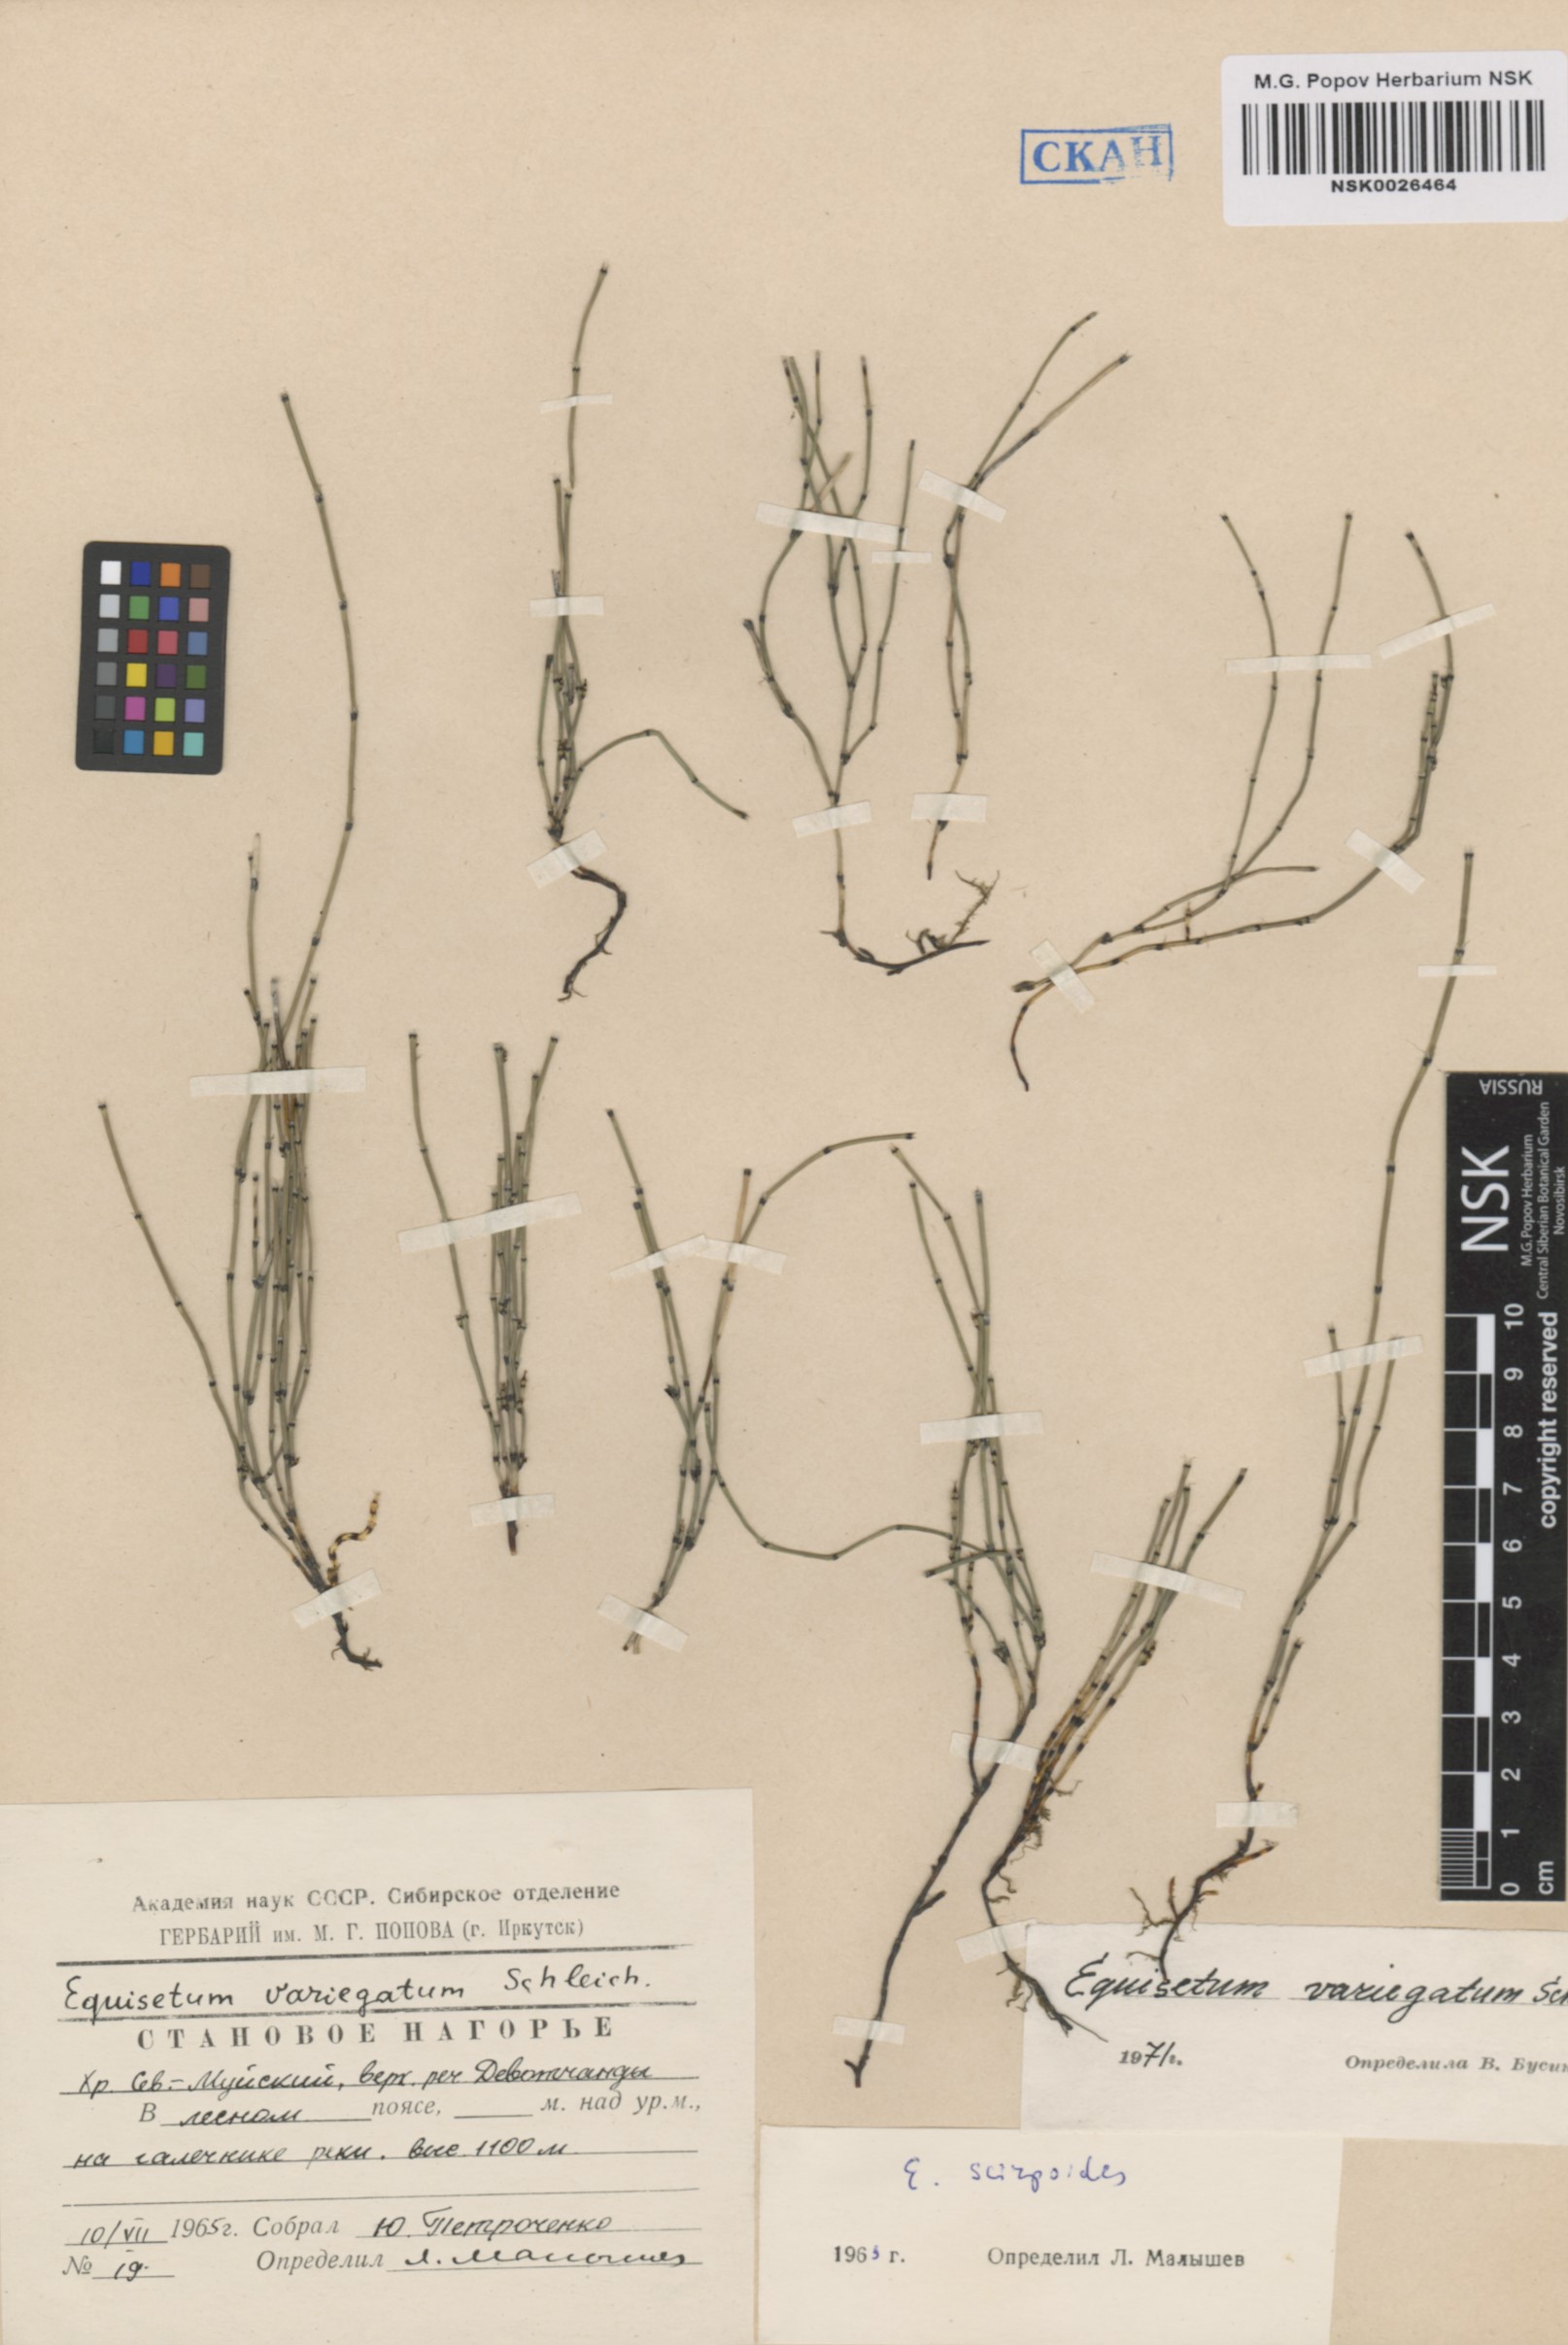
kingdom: Plantae
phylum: Tracheophyta
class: Polypodiopsida
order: Equisetales
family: Equisetaceae
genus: Equisetum
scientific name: Equisetum variegatum
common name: Variegated horsetail
